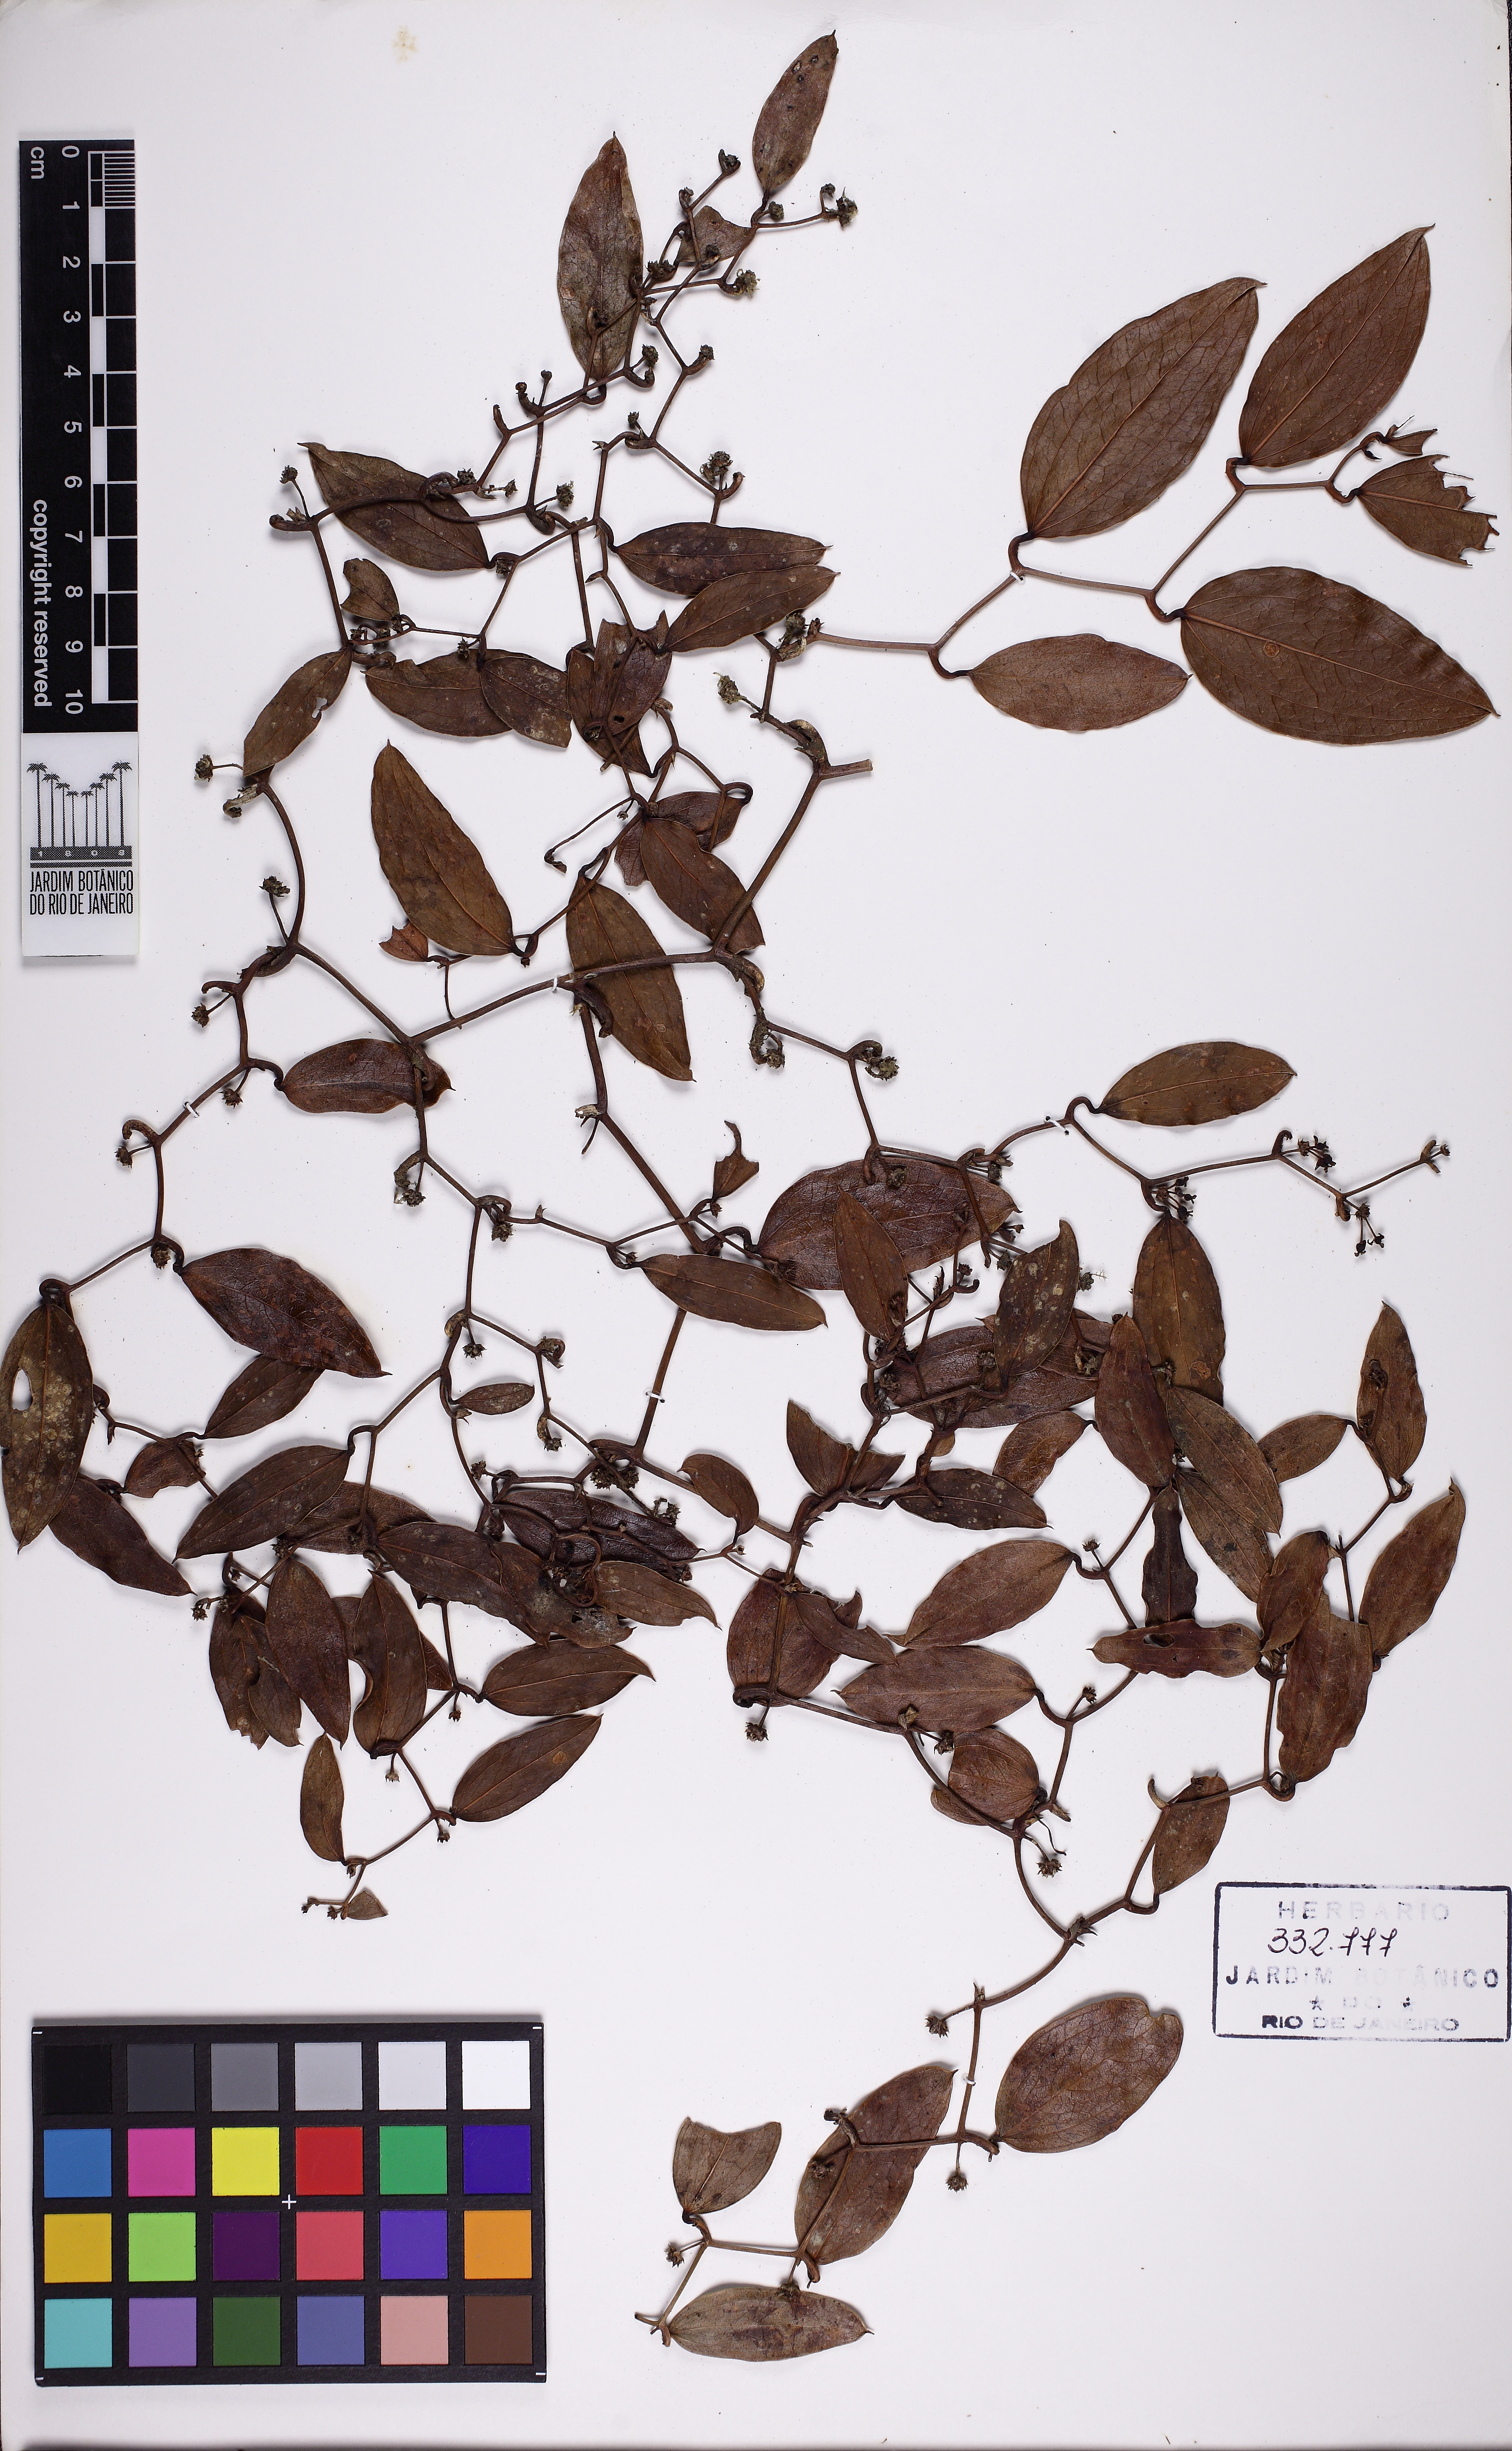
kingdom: Plantae
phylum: Tracheophyta
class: Liliopsida
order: Liliales
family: Smilacaceae
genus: Smilax
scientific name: Smilax campestris
